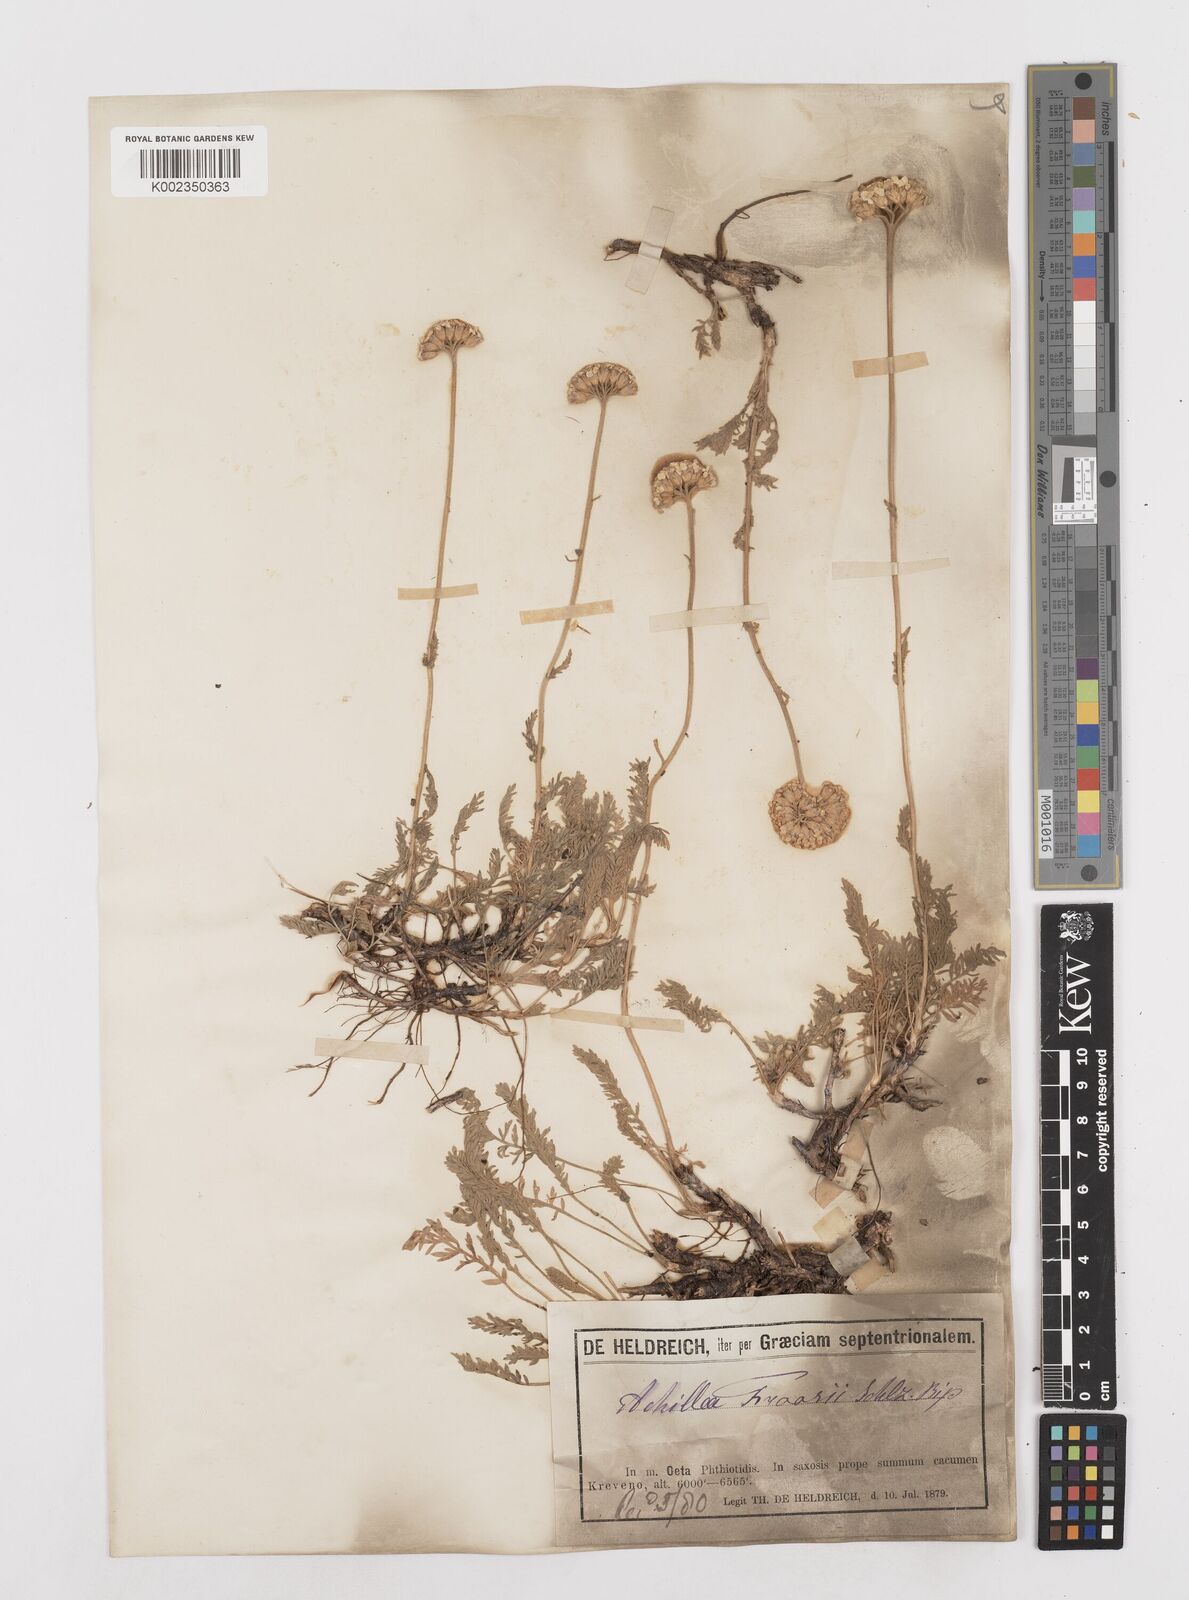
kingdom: Plantae
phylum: Tracheophyta
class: Magnoliopsida
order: Asterales
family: Asteraceae
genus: Achillea
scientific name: Achillea fraasii
